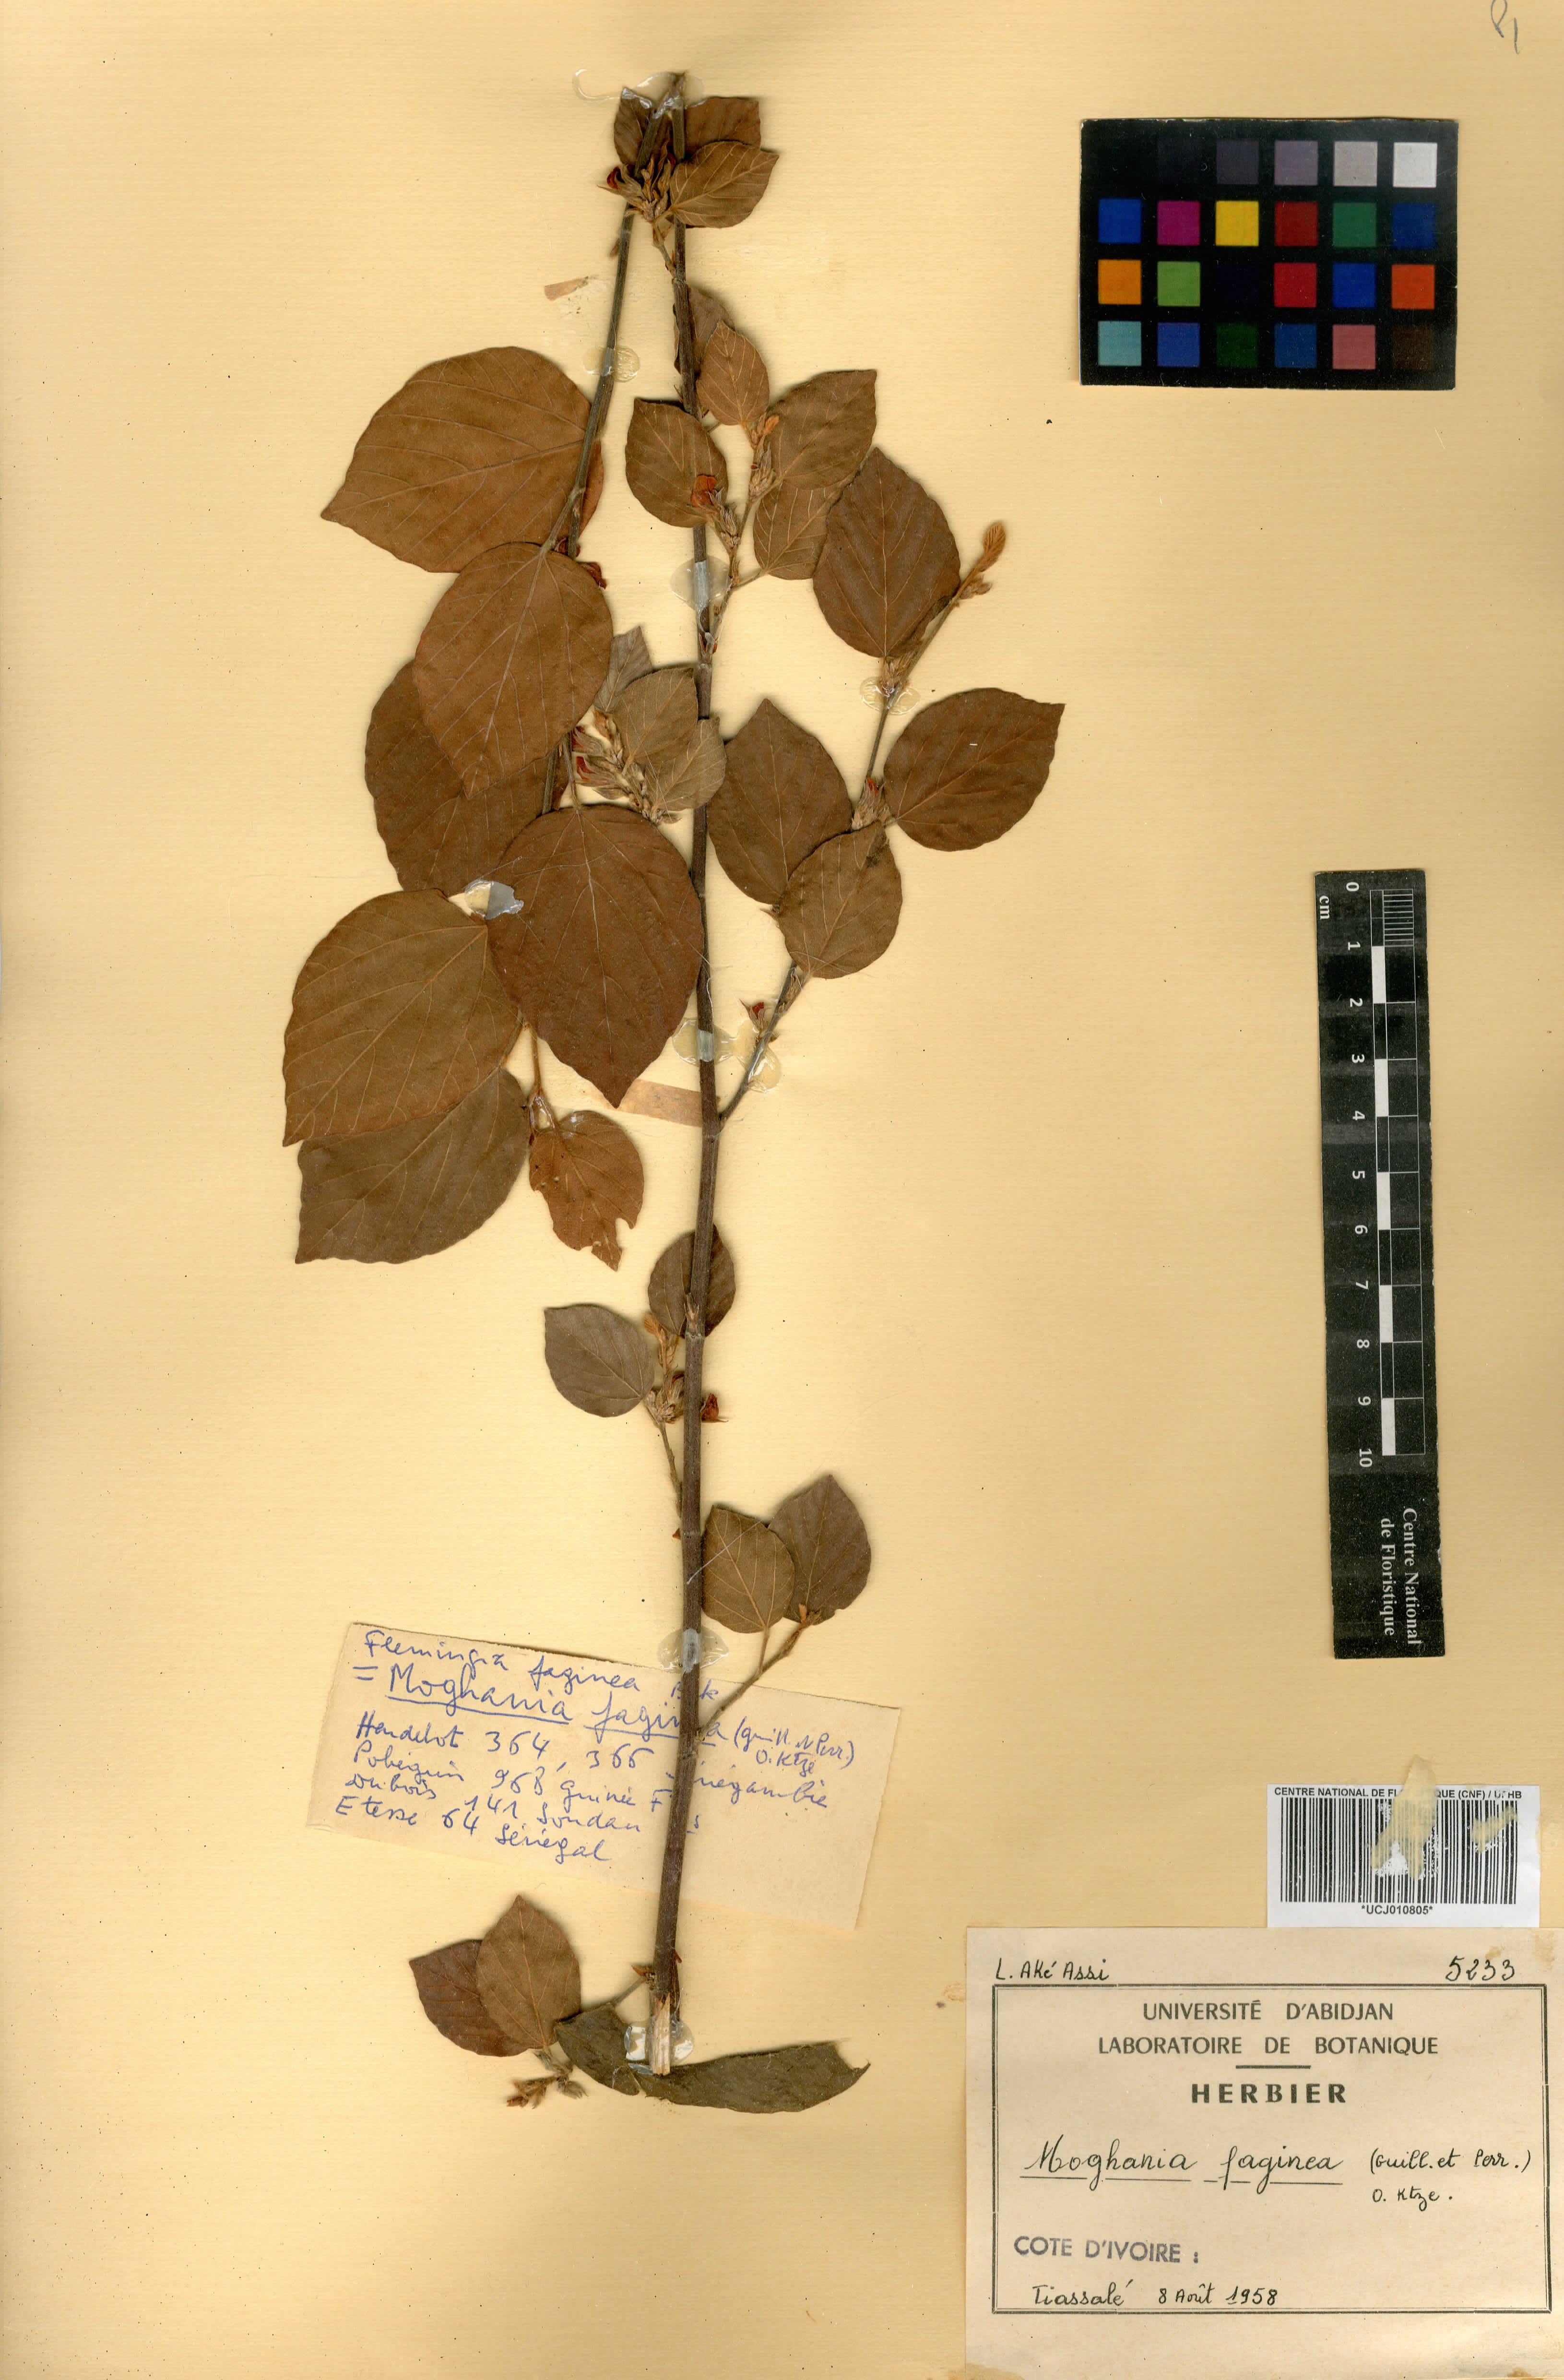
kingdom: Plantae
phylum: Tracheophyta
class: Magnoliopsida
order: Fabales
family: Fabaceae
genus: Flemingia
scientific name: Flemingia faginea
